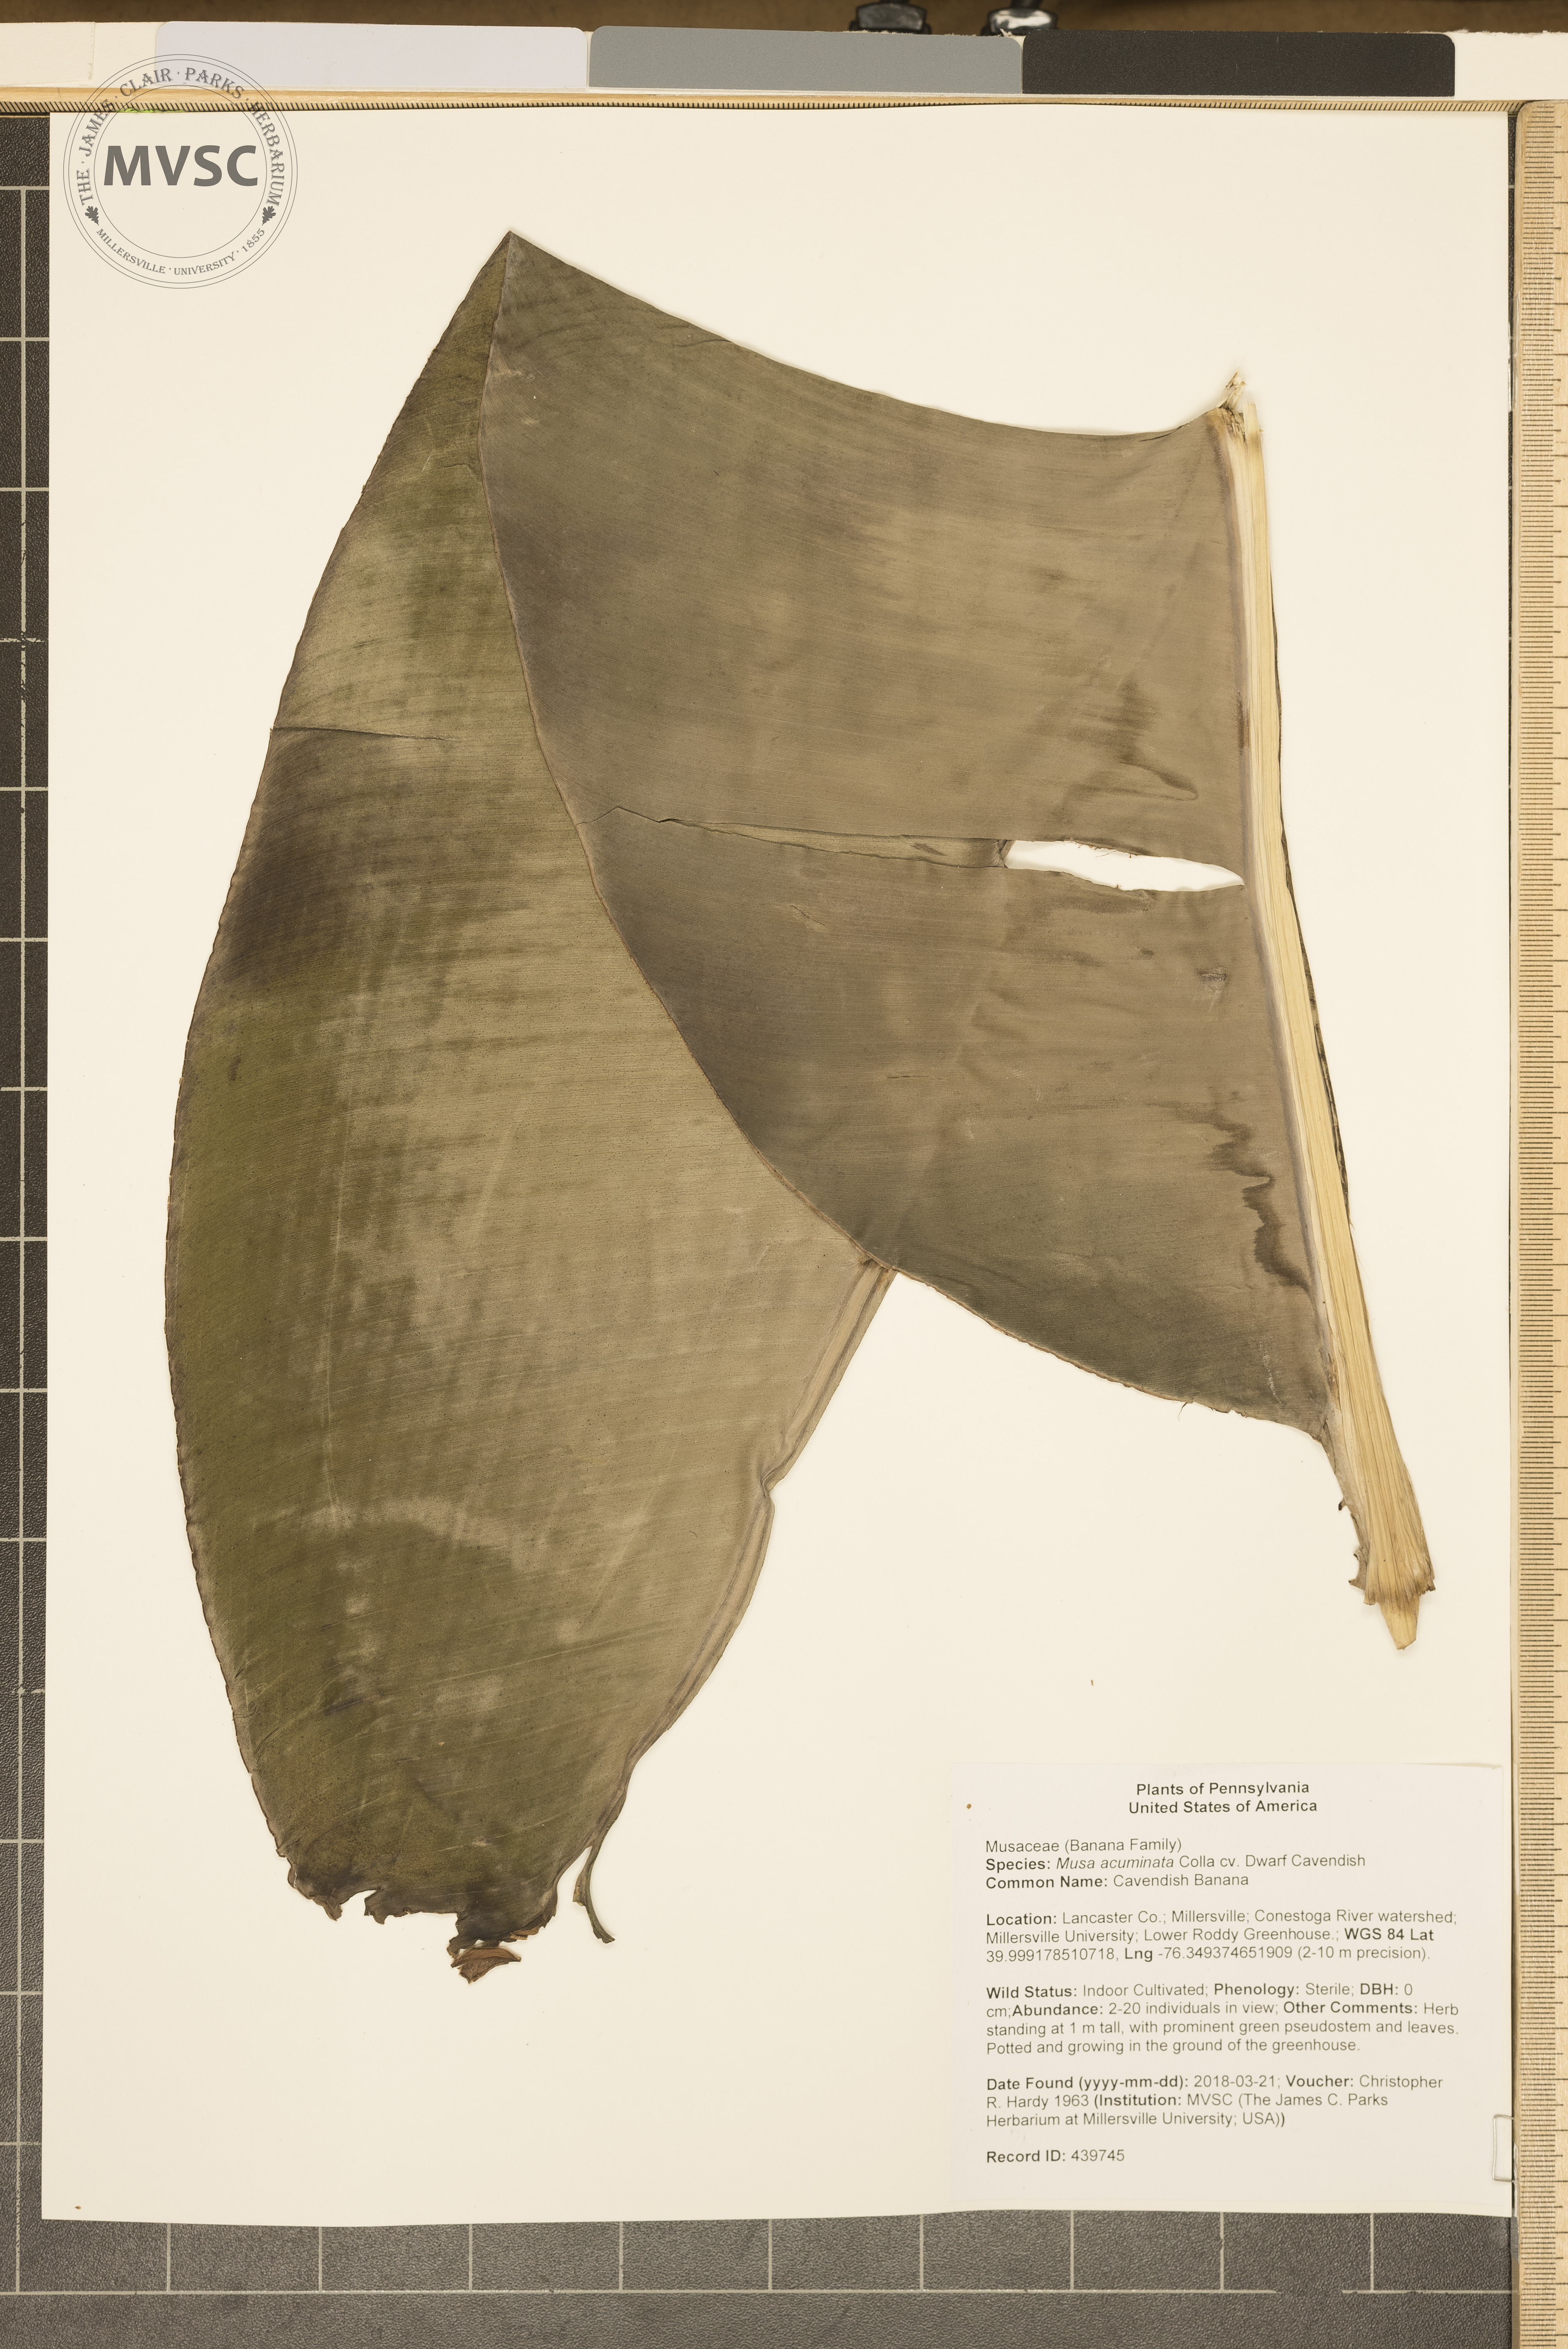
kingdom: Plantae
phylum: Tracheophyta
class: Liliopsida
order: Zingiberales
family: Musaceae
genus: Musa
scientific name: Musa acuminata
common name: Cavendish Banana
